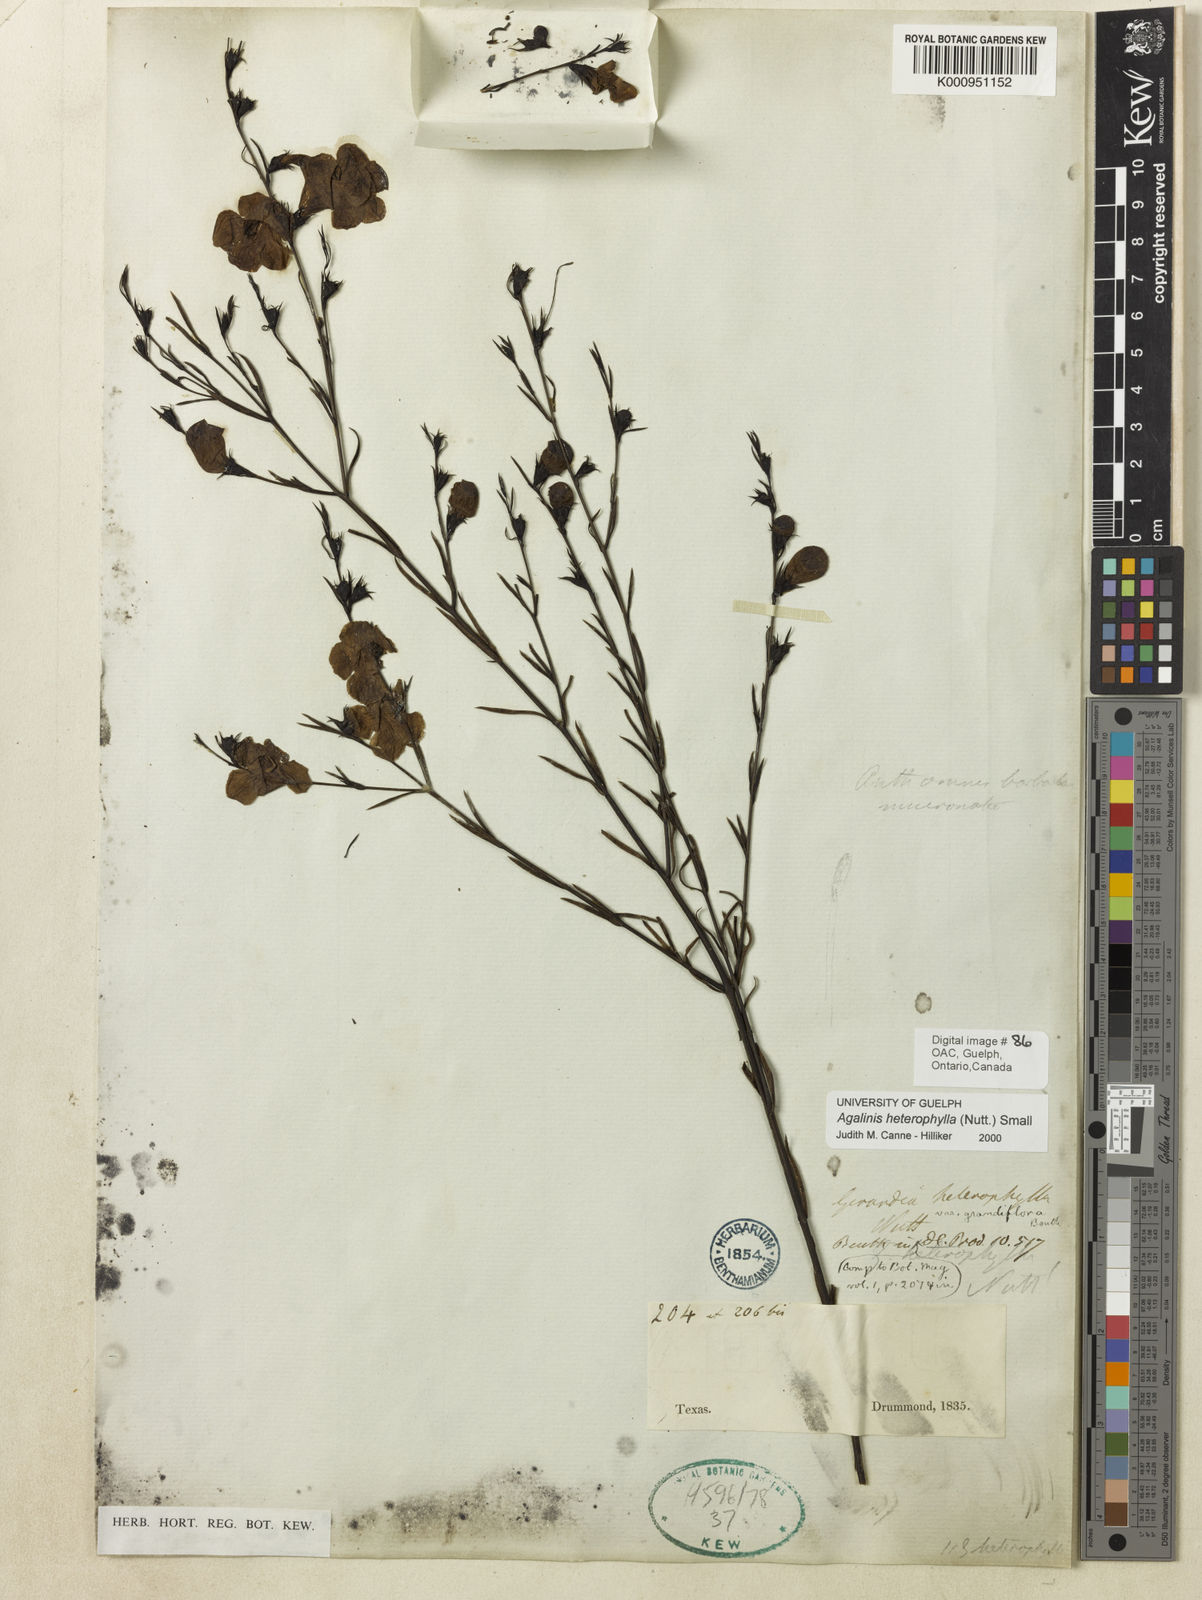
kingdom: Plantae
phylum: Tracheophyta
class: Magnoliopsida
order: Lamiales
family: Orobanchaceae
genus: Agalinis
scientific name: Agalinis heterophylla
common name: Prairie agalinis
